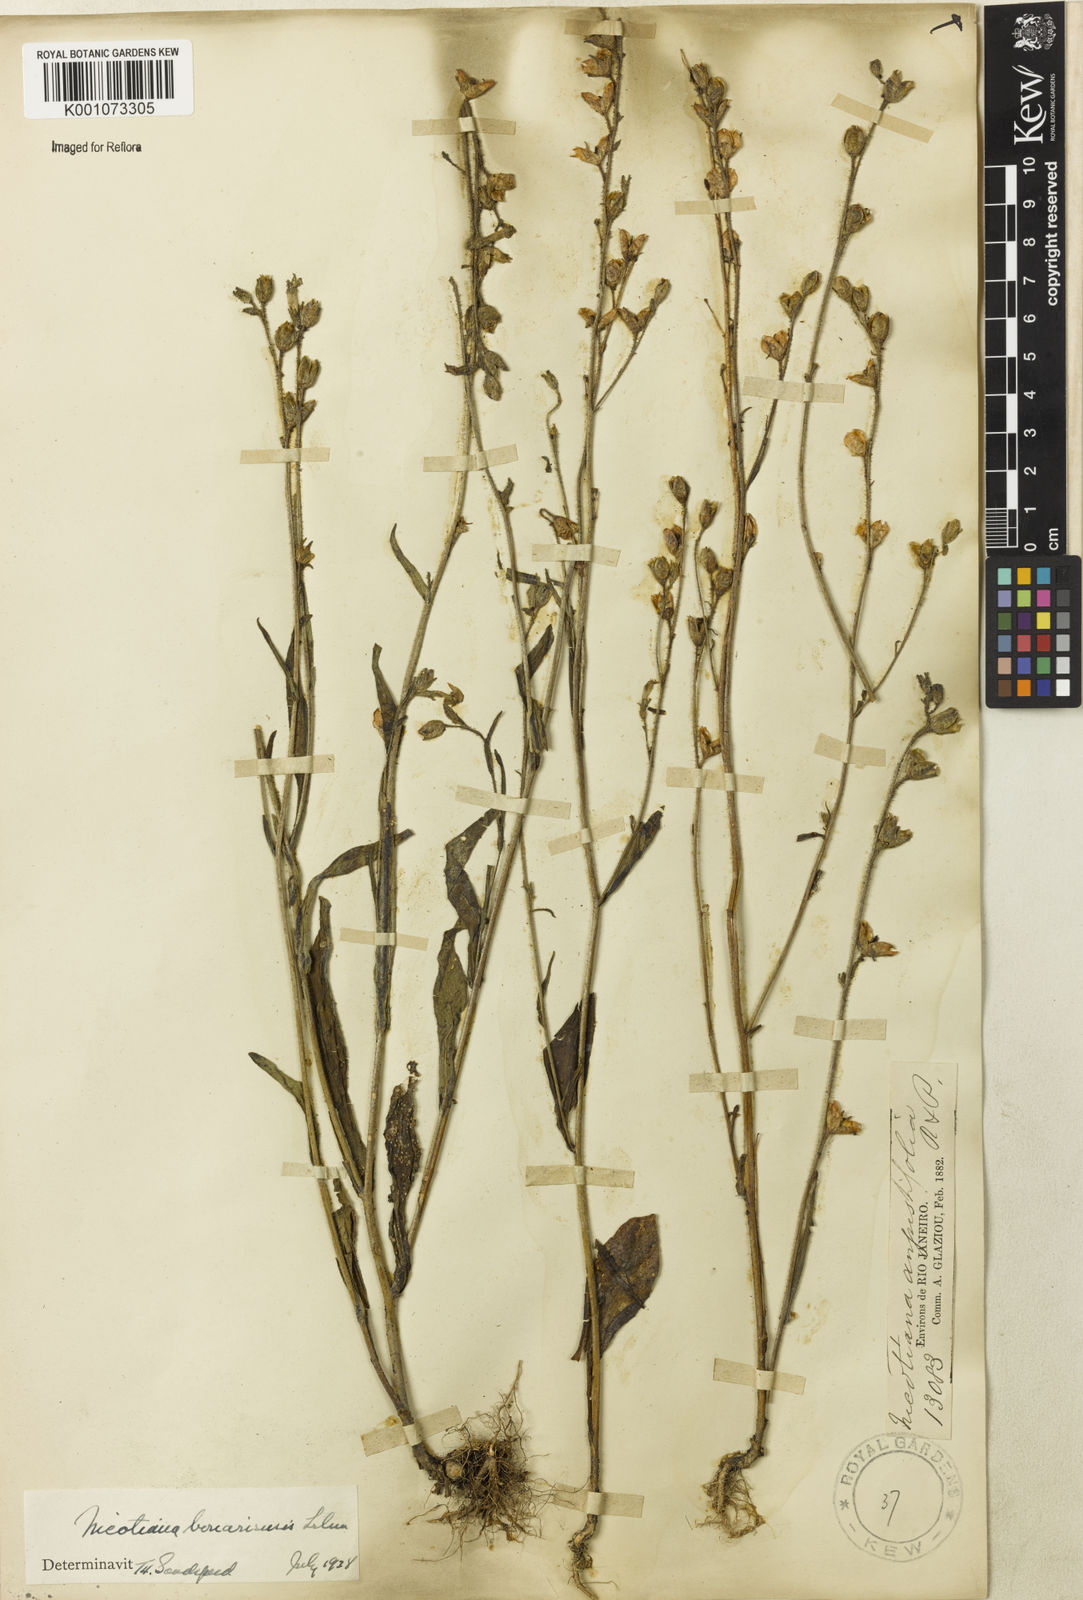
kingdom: Plantae
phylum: Tracheophyta
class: Magnoliopsida
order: Solanales
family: Solanaceae
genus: Nicotiana
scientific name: Nicotiana acuminata
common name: Manyflower tobacco
